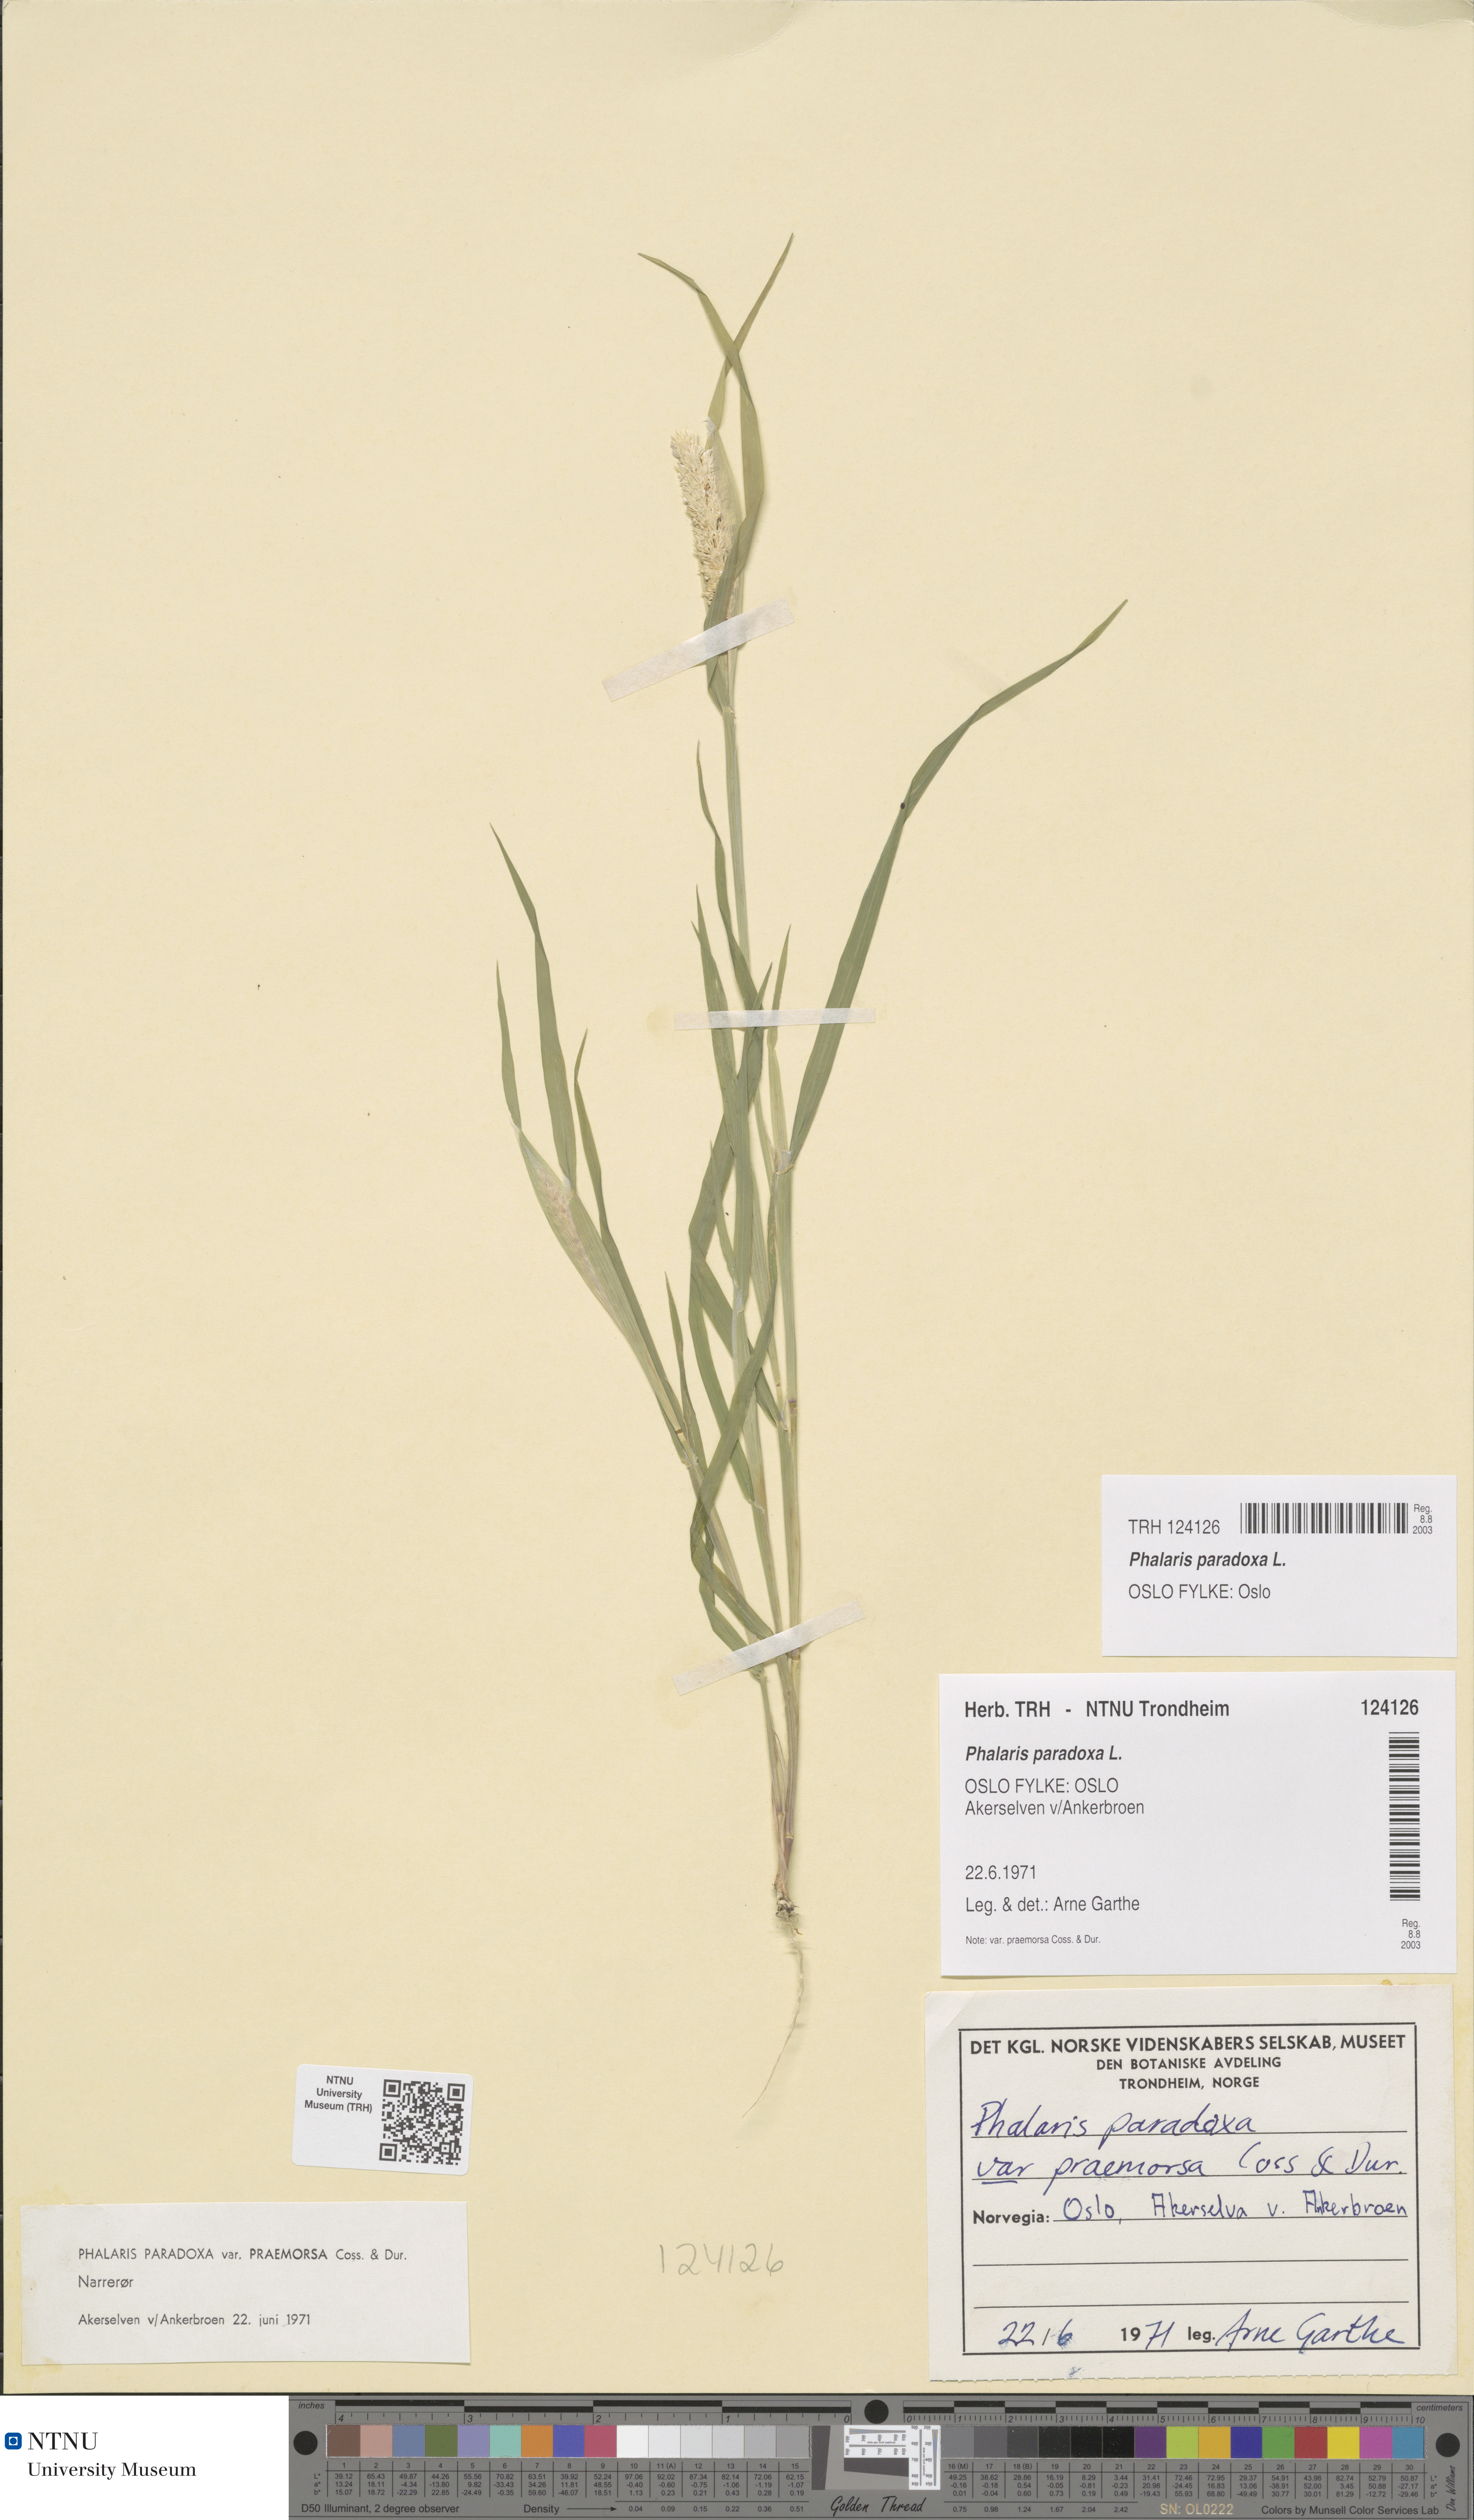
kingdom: Plantae
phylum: Tracheophyta
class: Liliopsida
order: Poales
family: Poaceae
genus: Phalaris
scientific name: Phalaris paradoxa
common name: Awned canary-grass
